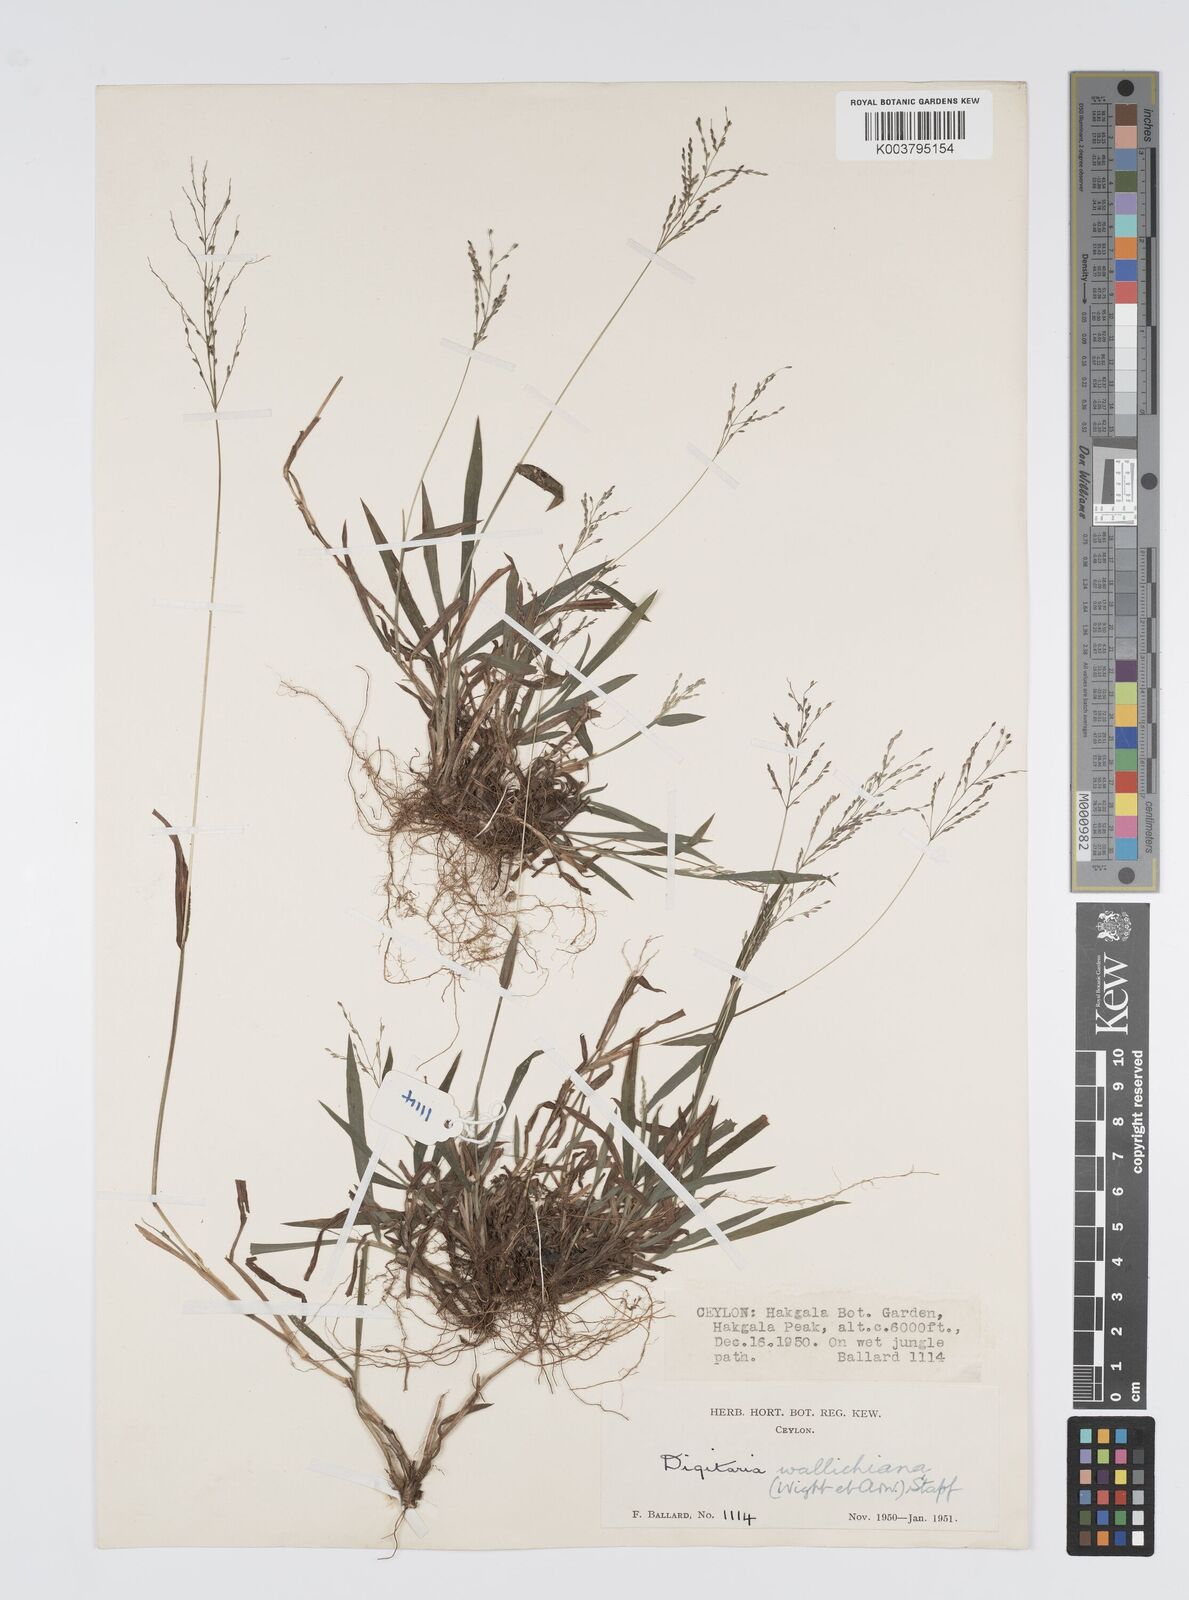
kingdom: Plantae
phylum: Tracheophyta
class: Liliopsida
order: Poales
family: Poaceae
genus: Digitaria
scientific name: Digitaria wallichiana
